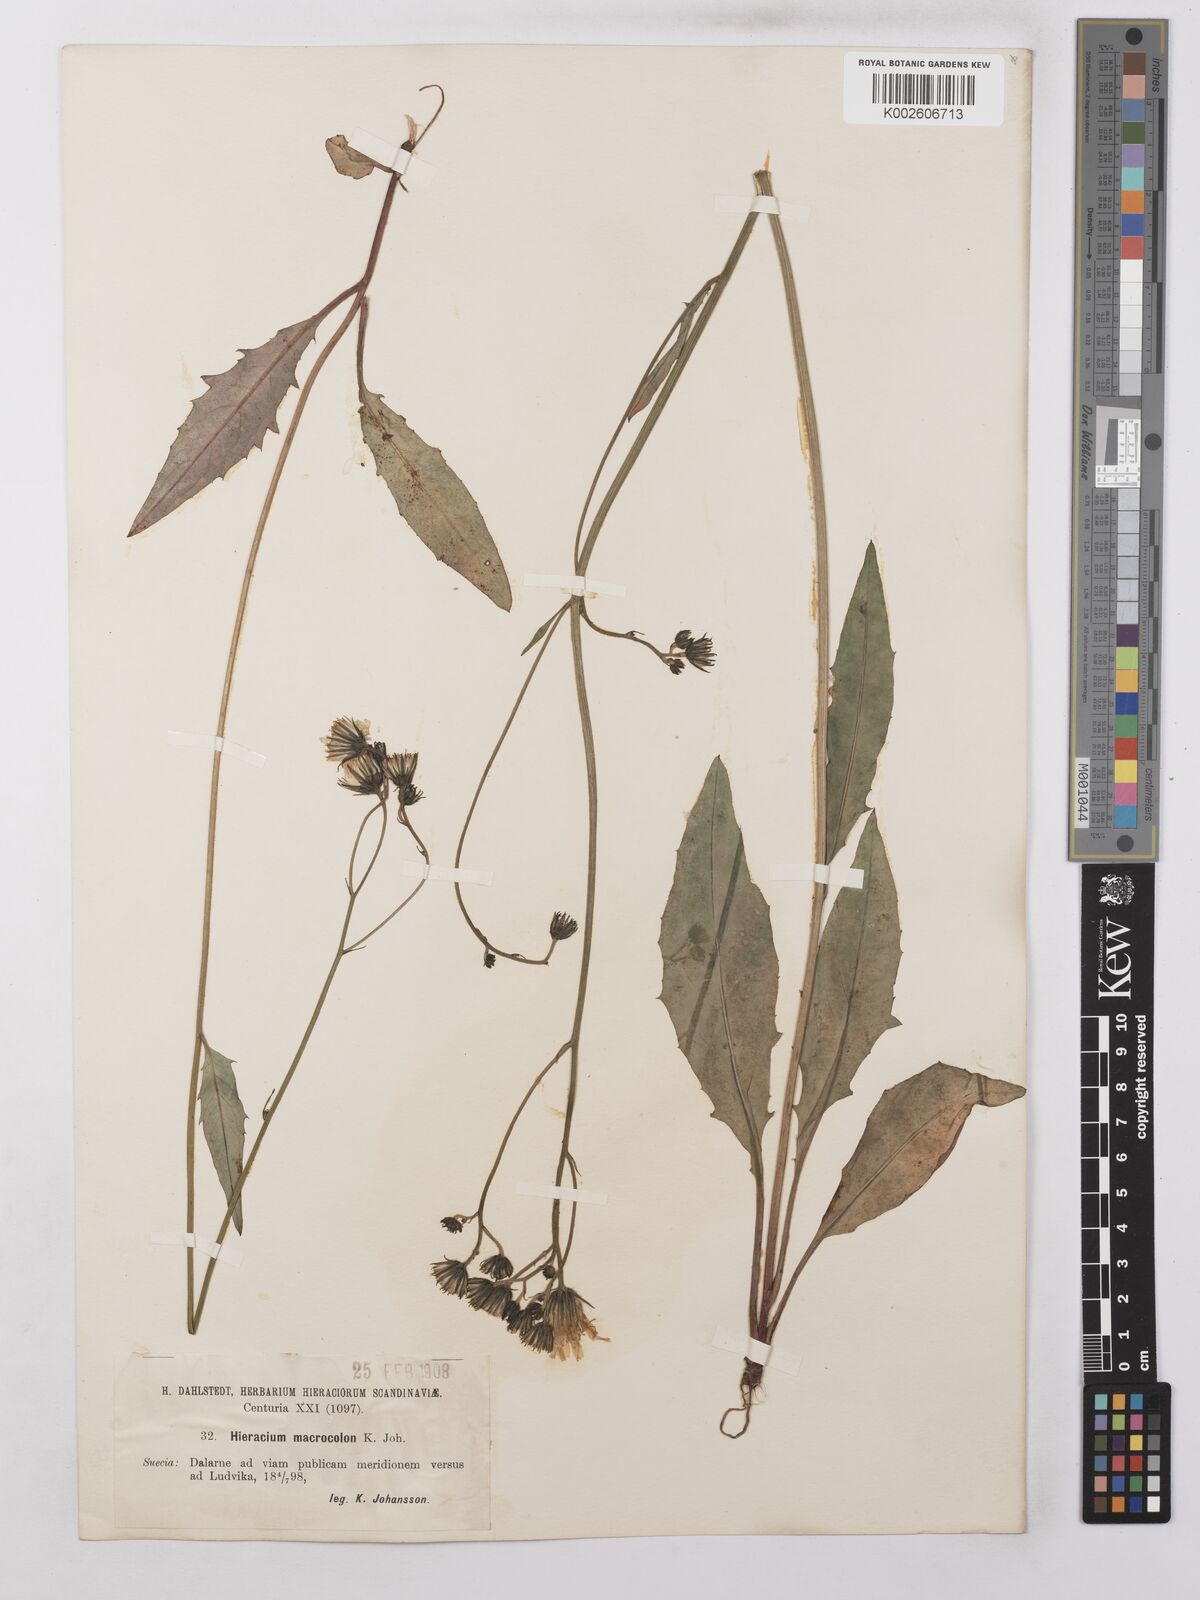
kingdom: Plantae
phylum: Tracheophyta
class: Magnoliopsida
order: Asterales
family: Asteraceae
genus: Hieracium
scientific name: Hieracium lachenalii
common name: Common hawkweed
